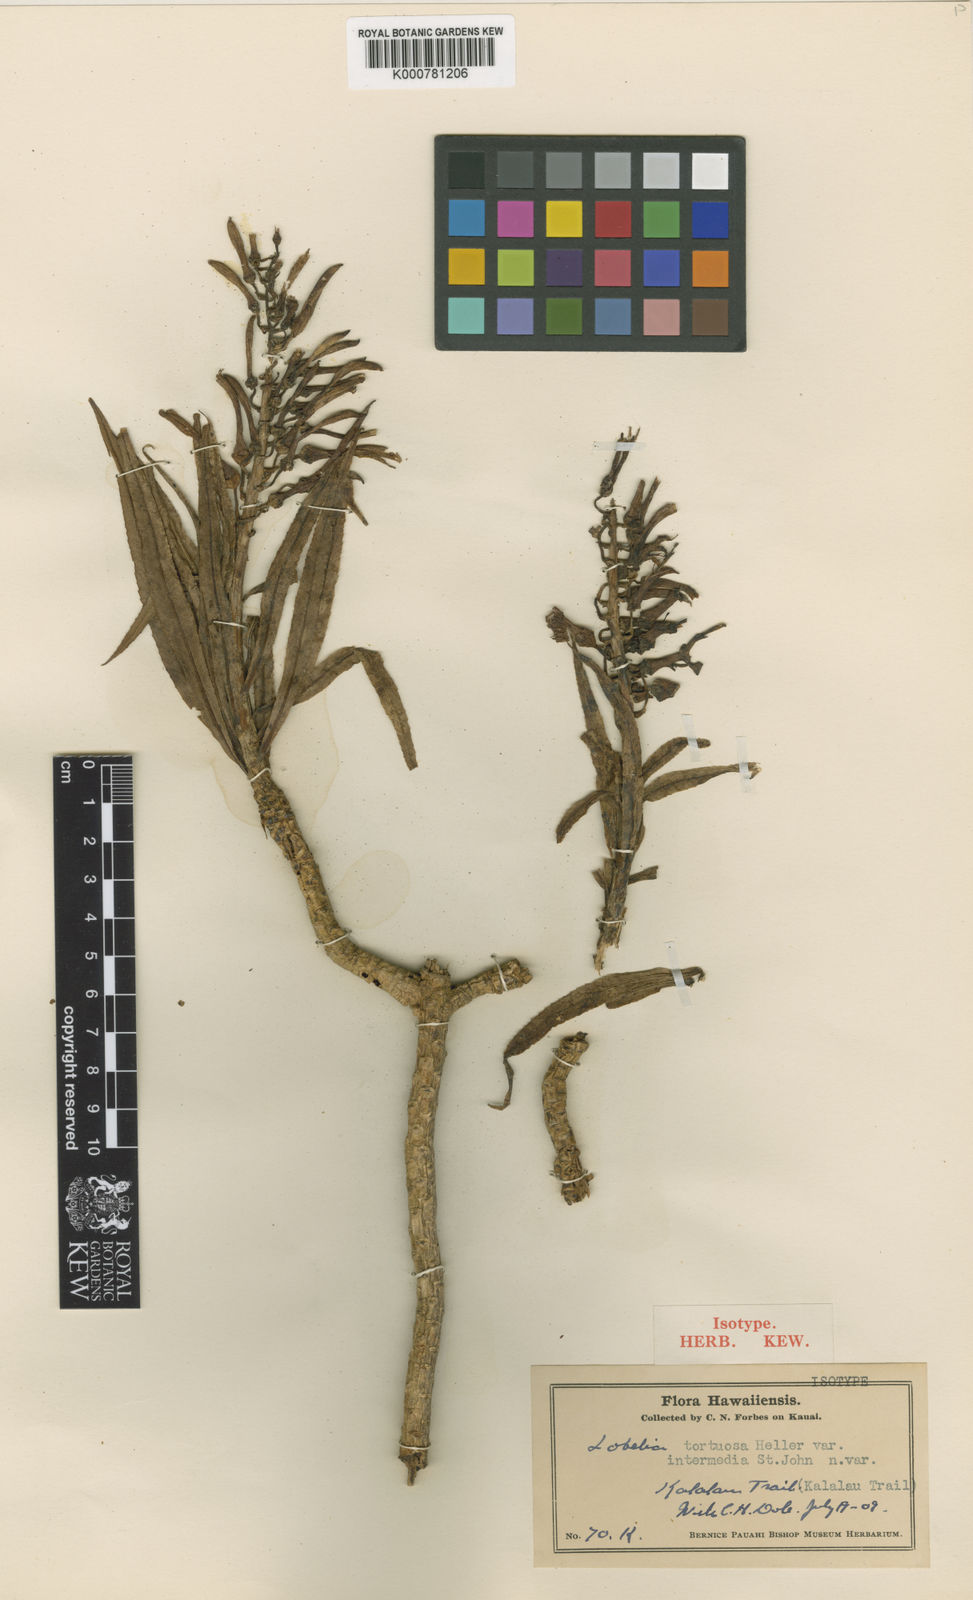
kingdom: Plantae
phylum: Tracheophyta
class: Magnoliopsida
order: Asterales
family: Campanulaceae
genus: Lobelia
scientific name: Lobelia niihauensis
